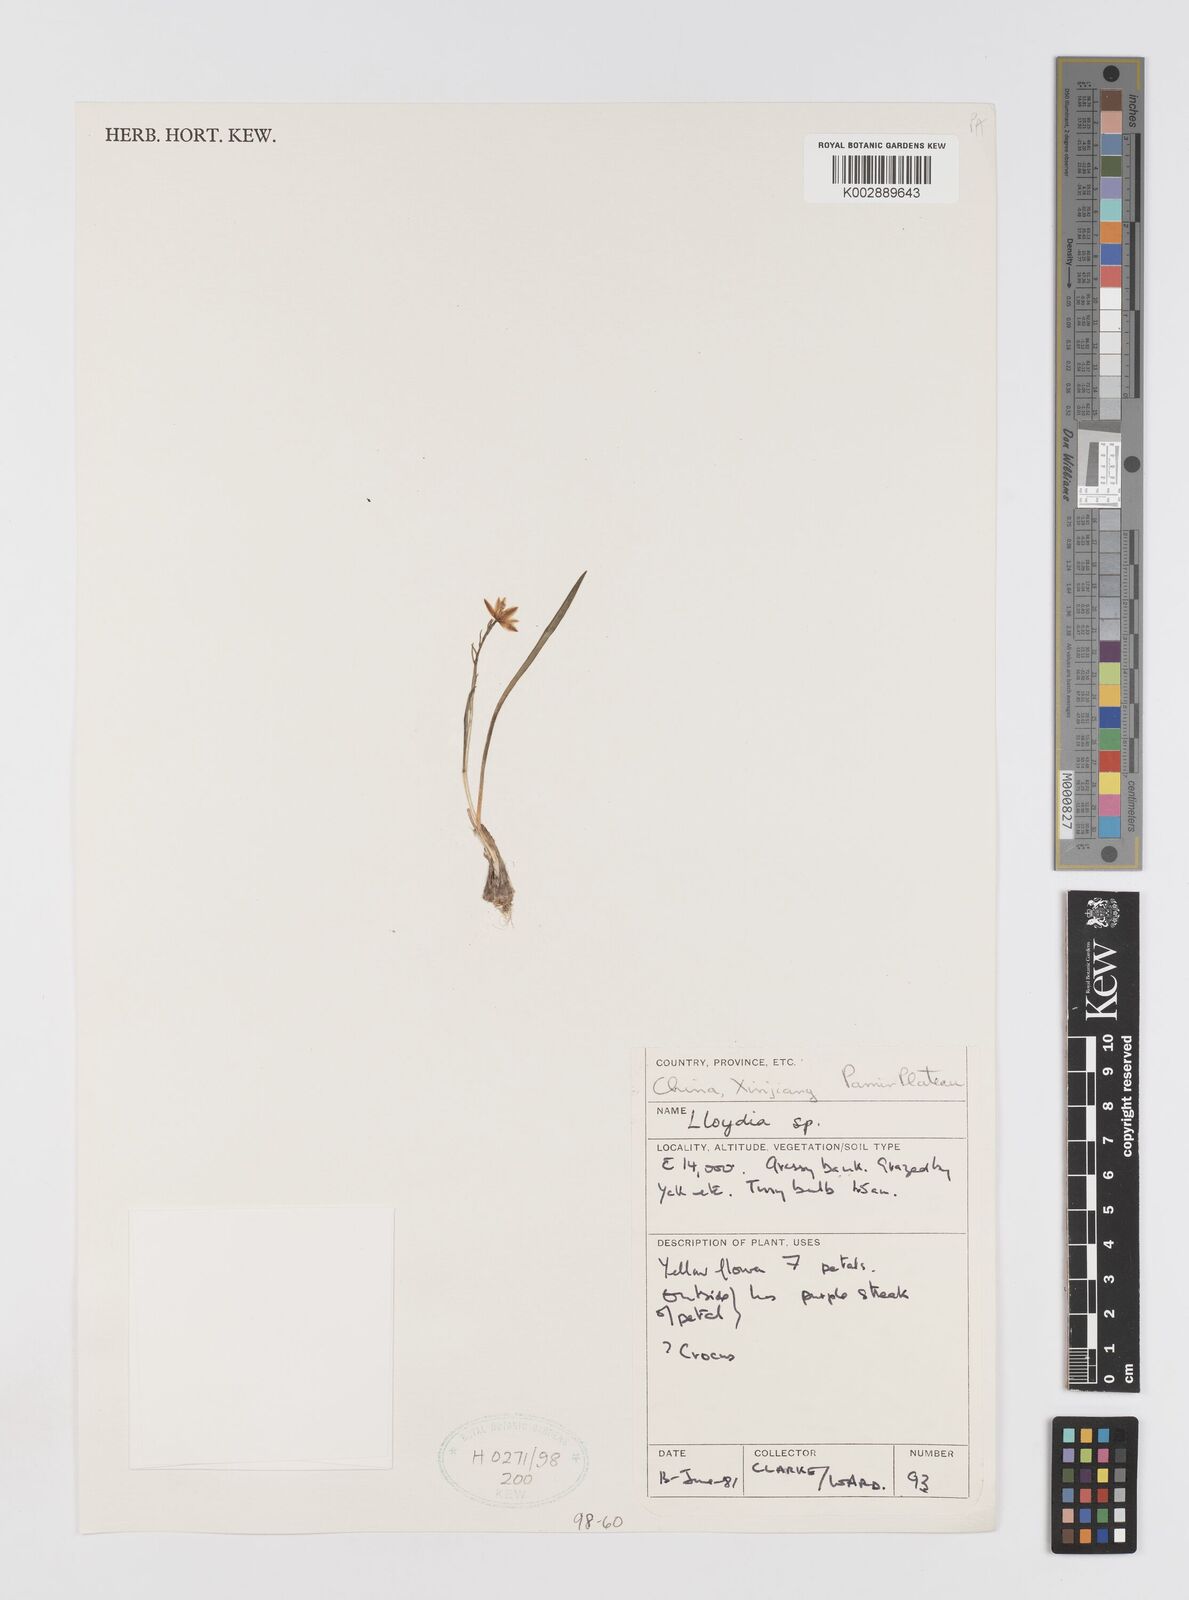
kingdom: Plantae
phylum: Tracheophyta
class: Liliopsida
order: Liliales
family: Liliaceae
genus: Gagea
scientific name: Gagea
